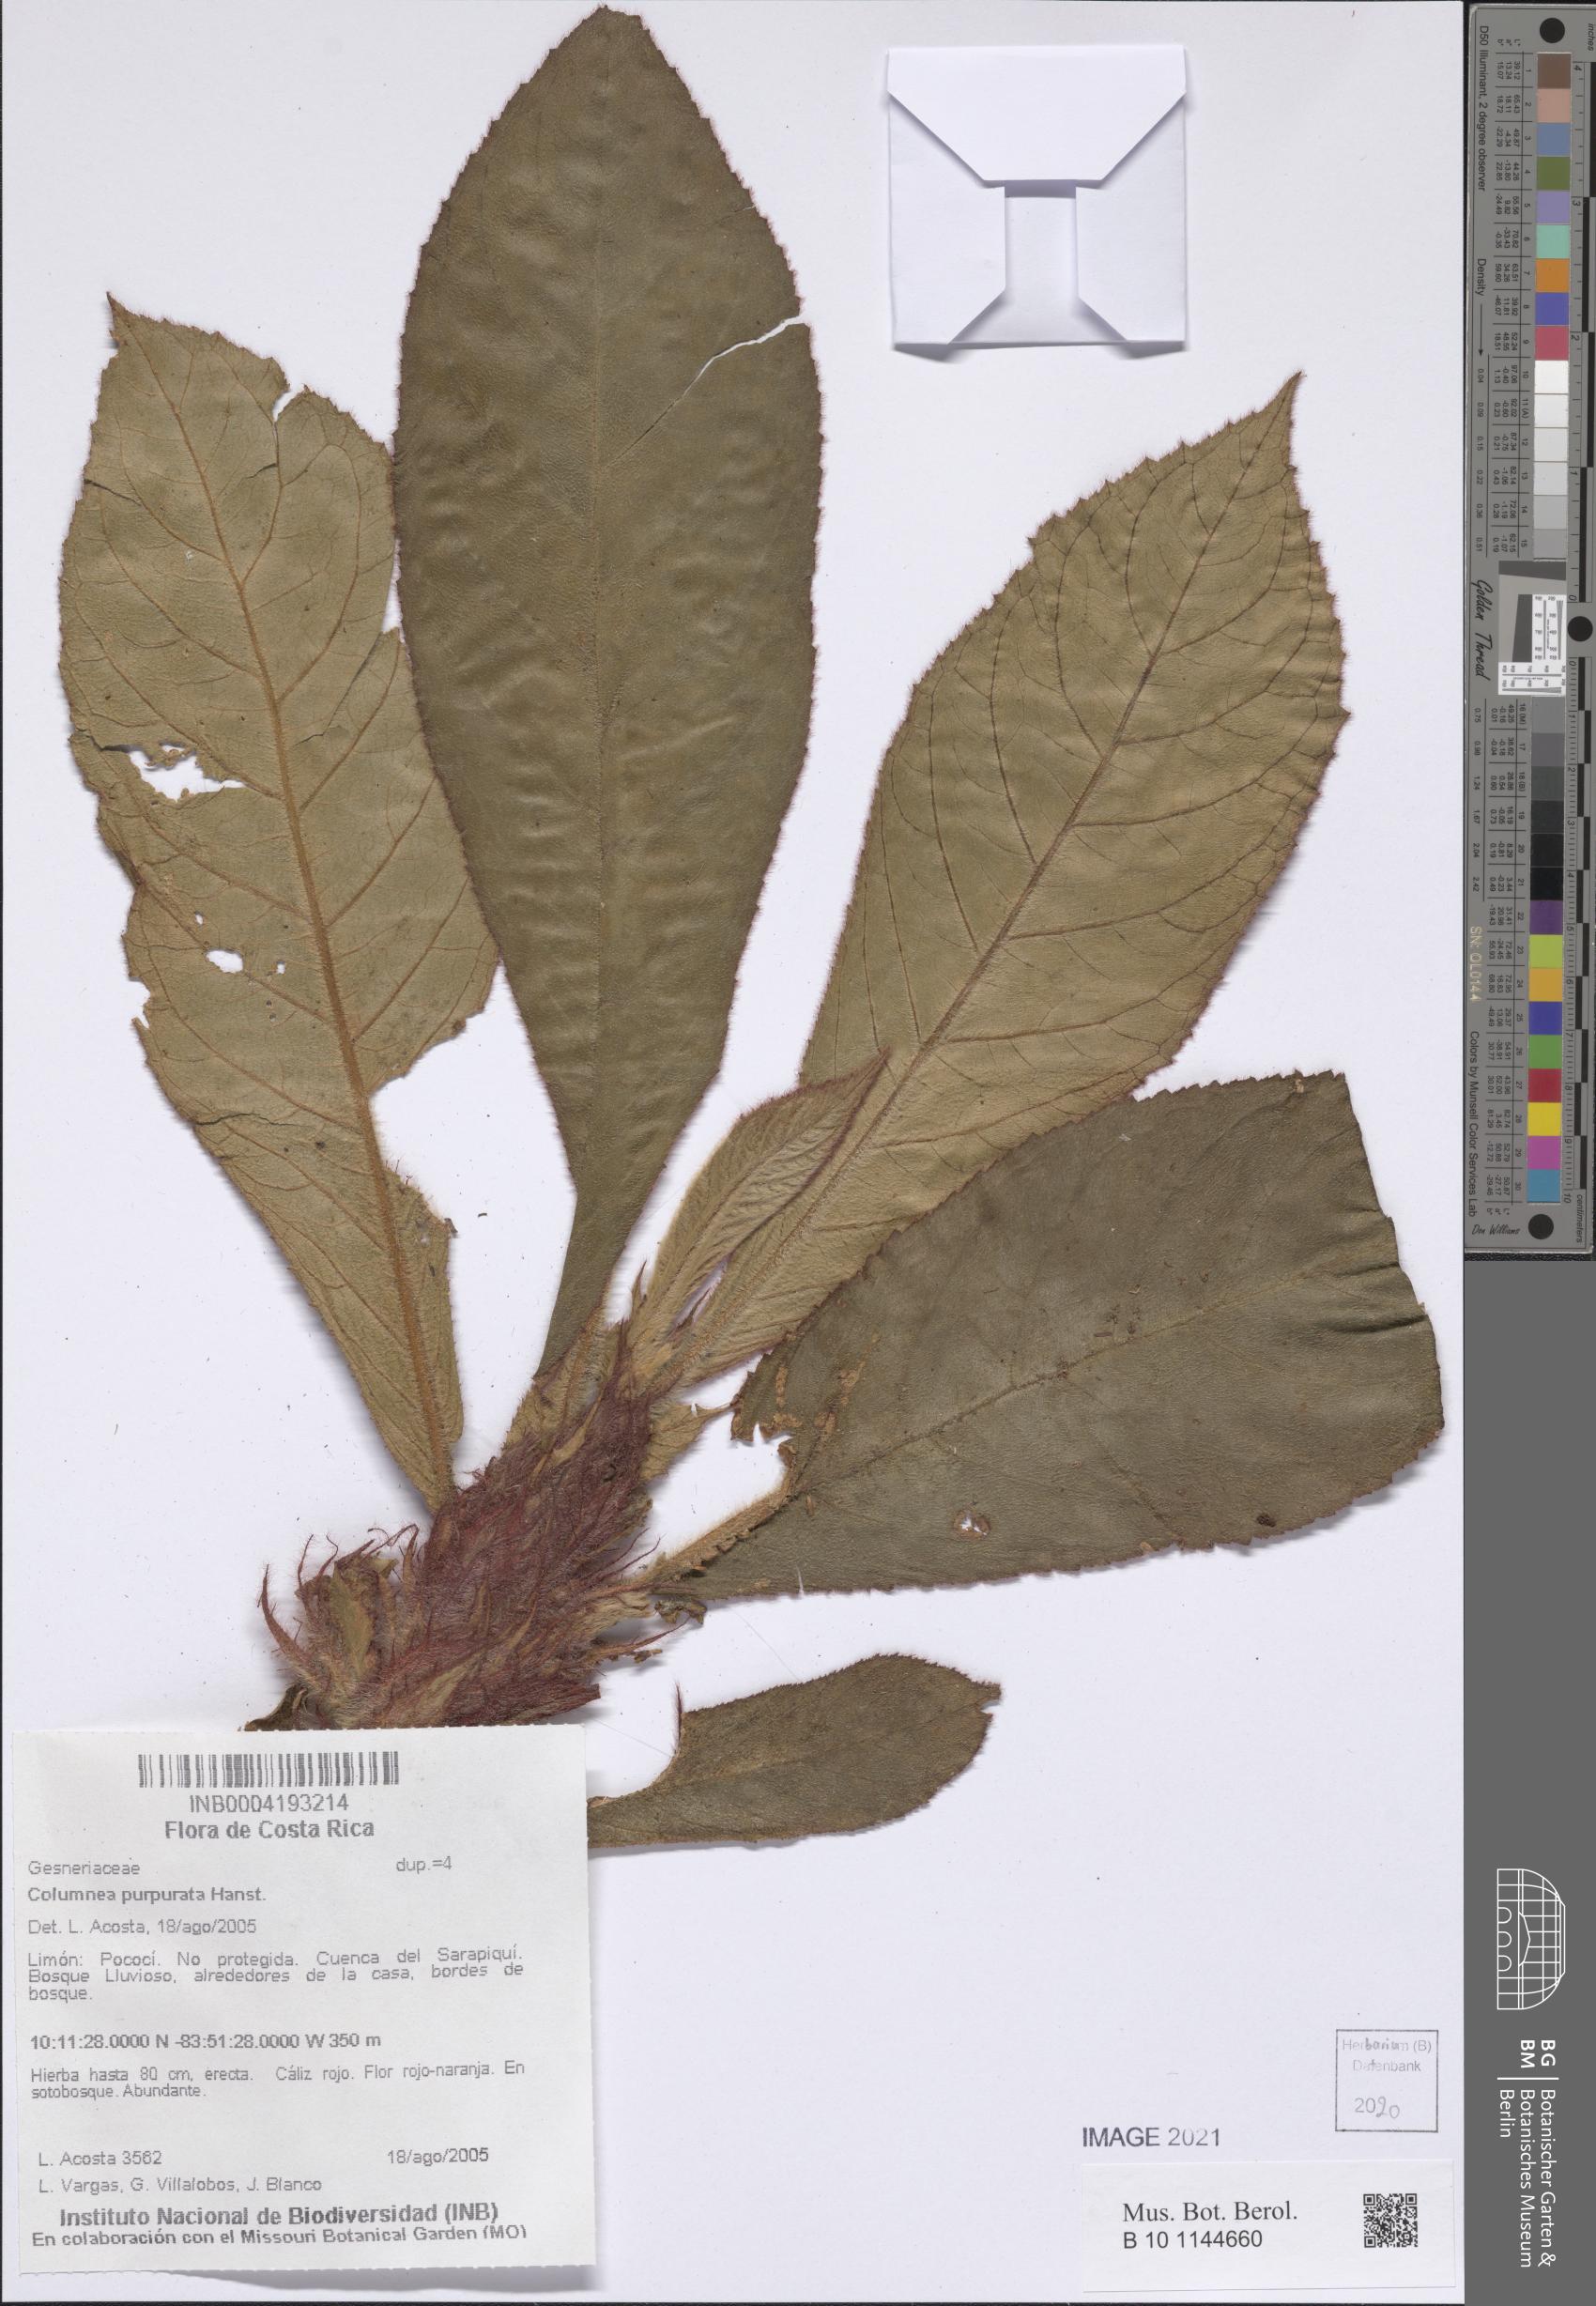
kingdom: Plantae
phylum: Tracheophyta
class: Magnoliopsida
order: Lamiales
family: Gesneriaceae
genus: Columnea
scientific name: Columnea purpurata
